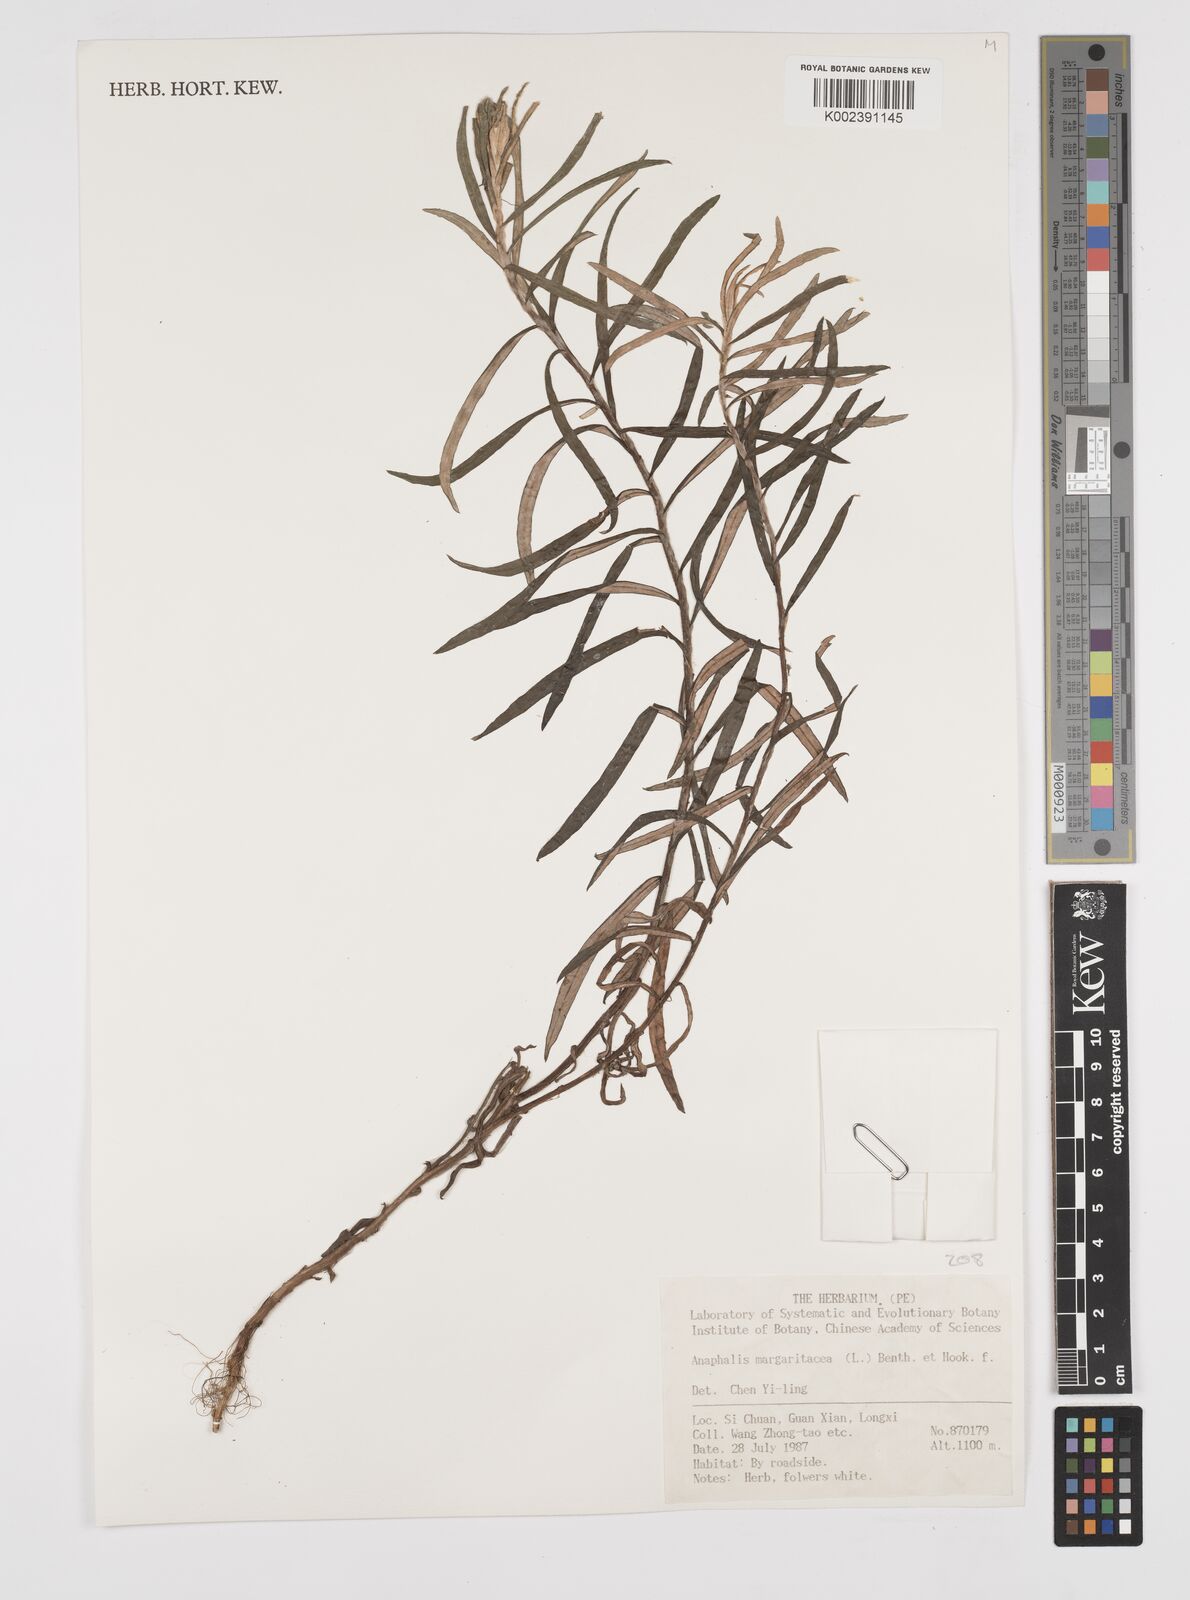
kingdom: Plantae
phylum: Tracheophyta
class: Magnoliopsida
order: Asterales
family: Asteraceae
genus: Anaphalis
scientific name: Anaphalis margaritacea
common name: Pearly everlasting
